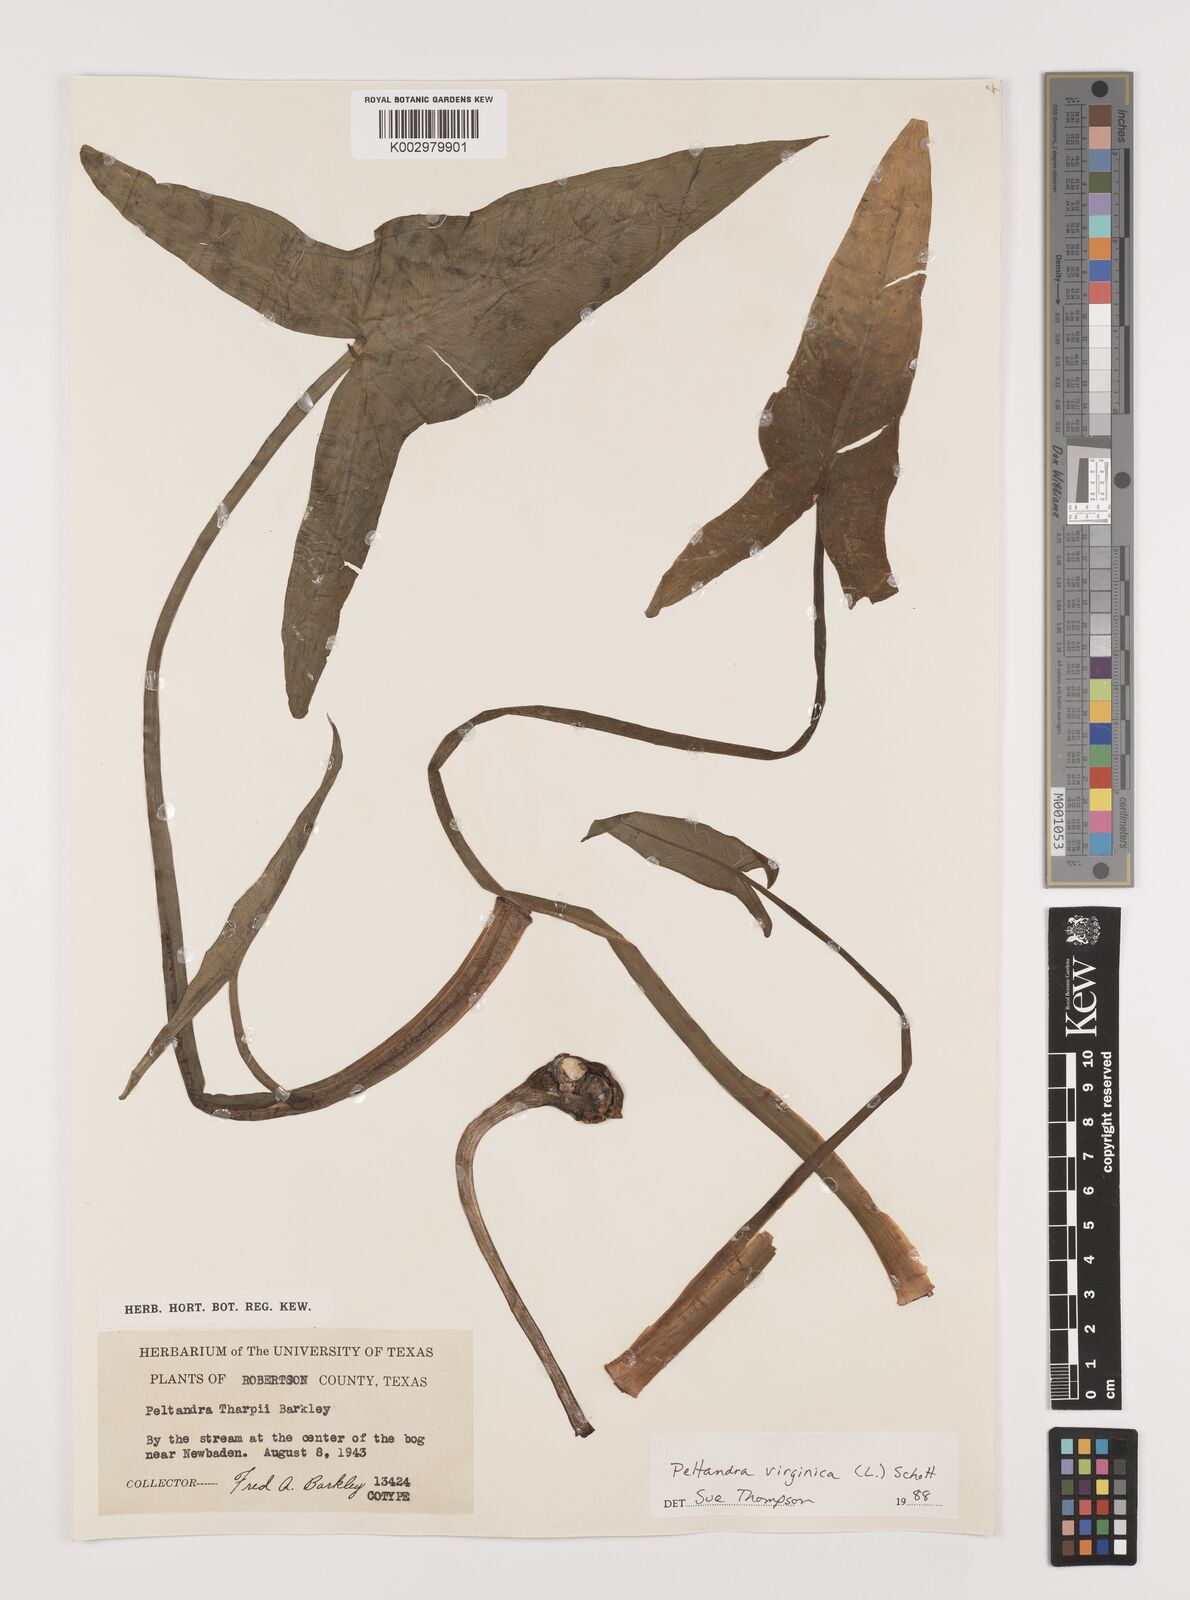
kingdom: Plantae
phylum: Tracheophyta
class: Liliopsida
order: Alismatales
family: Araceae
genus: Peltandra
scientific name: Peltandra virginica
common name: Arrow arum
